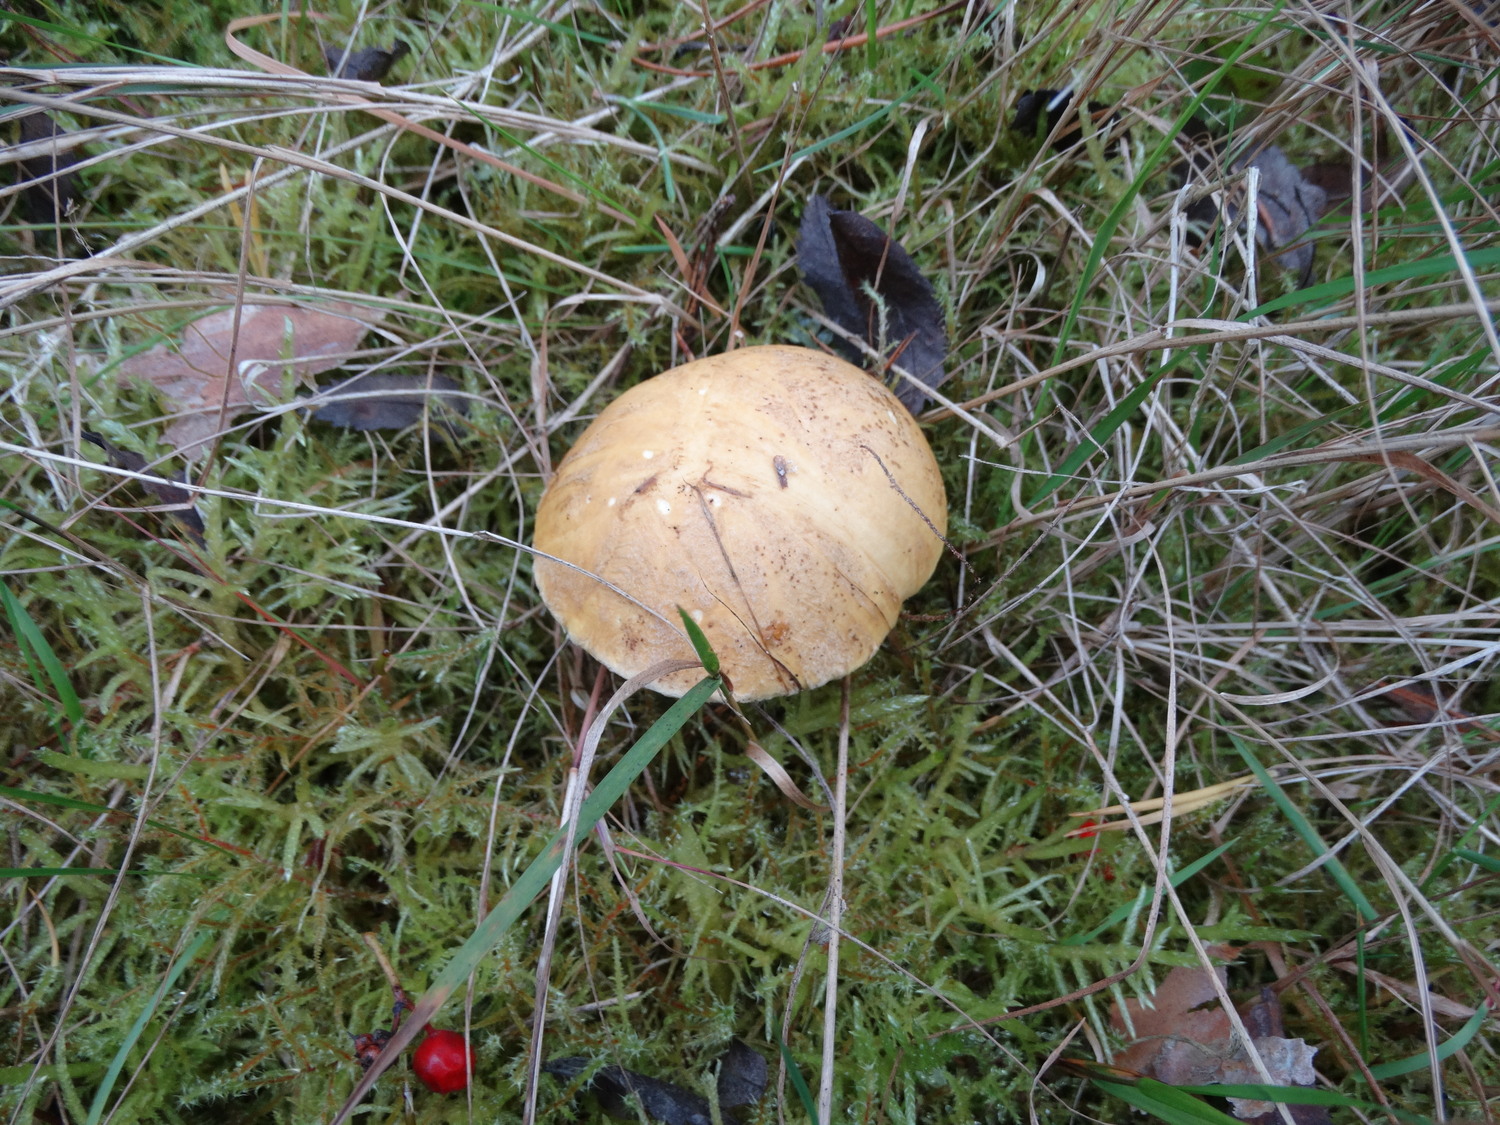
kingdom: Fungi
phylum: Basidiomycota
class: Agaricomycetes
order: Boletales
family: Suillaceae
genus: Suillus
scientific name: Suillus variegatus
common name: broget slimrørhat
